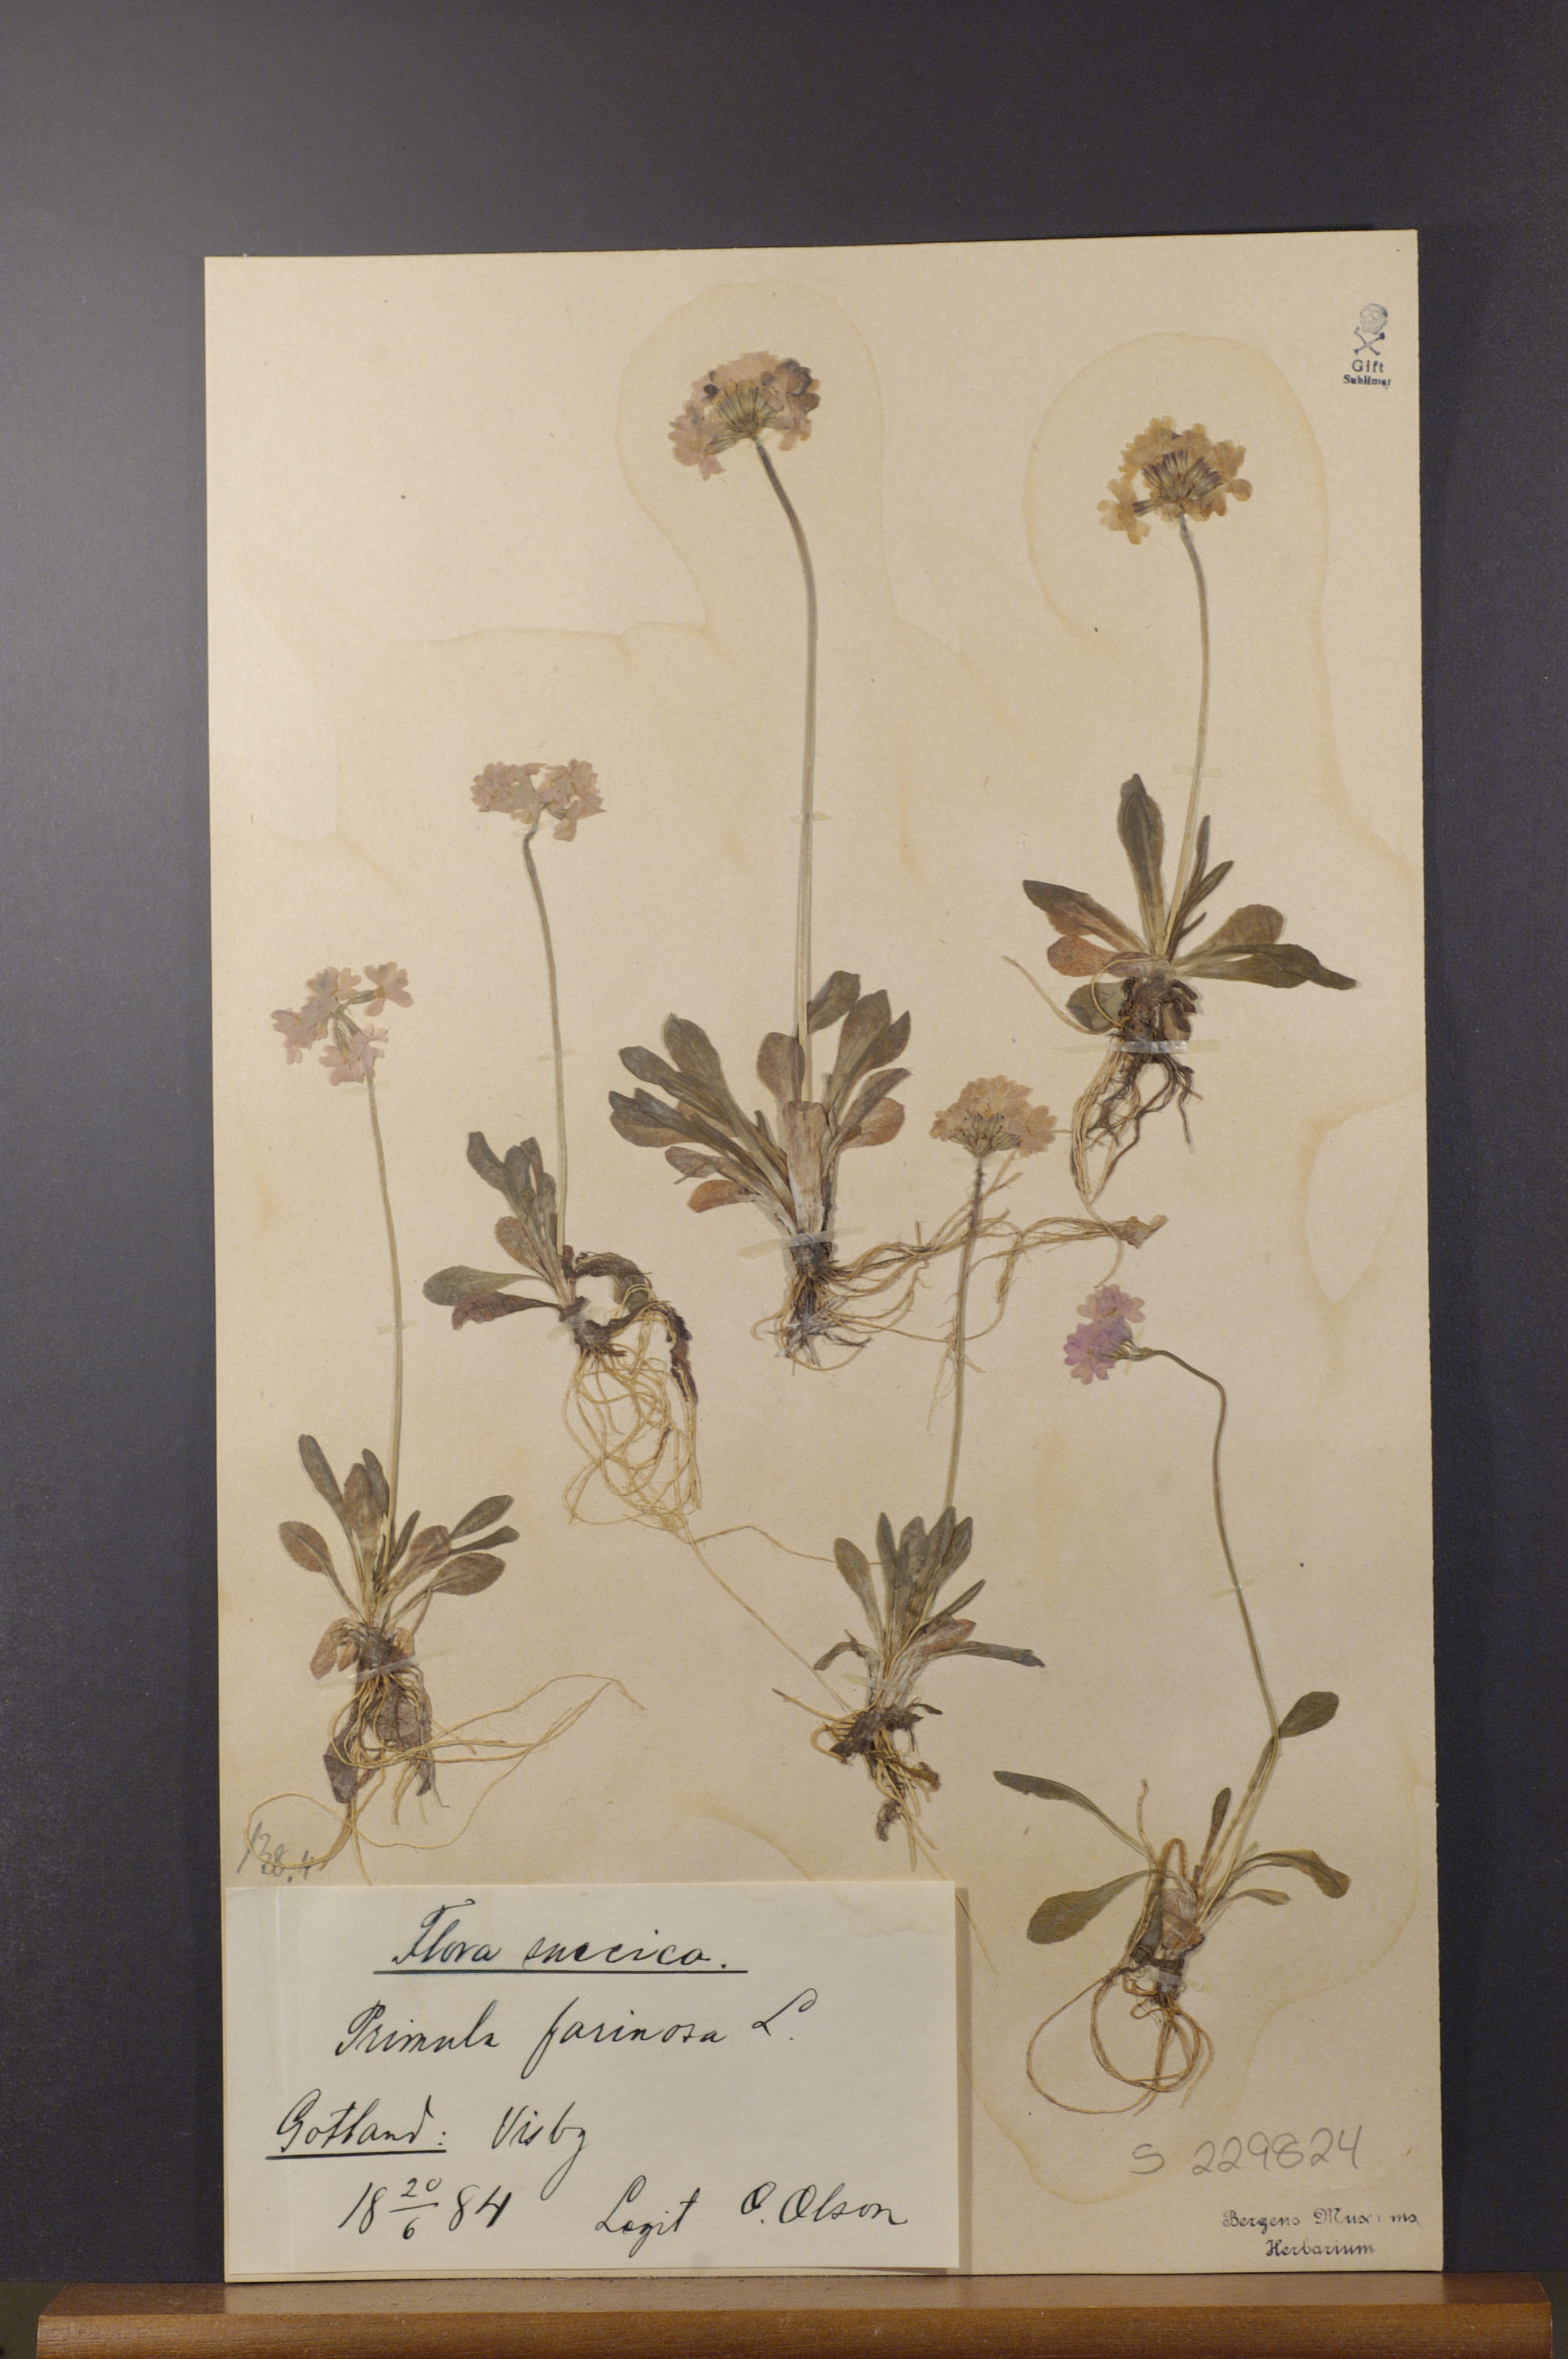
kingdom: Plantae
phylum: Tracheophyta
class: Magnoliopsida
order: Ericales
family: Primulaceae
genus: Primula
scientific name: Primula farinosa
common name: Bird's-eye primrose
